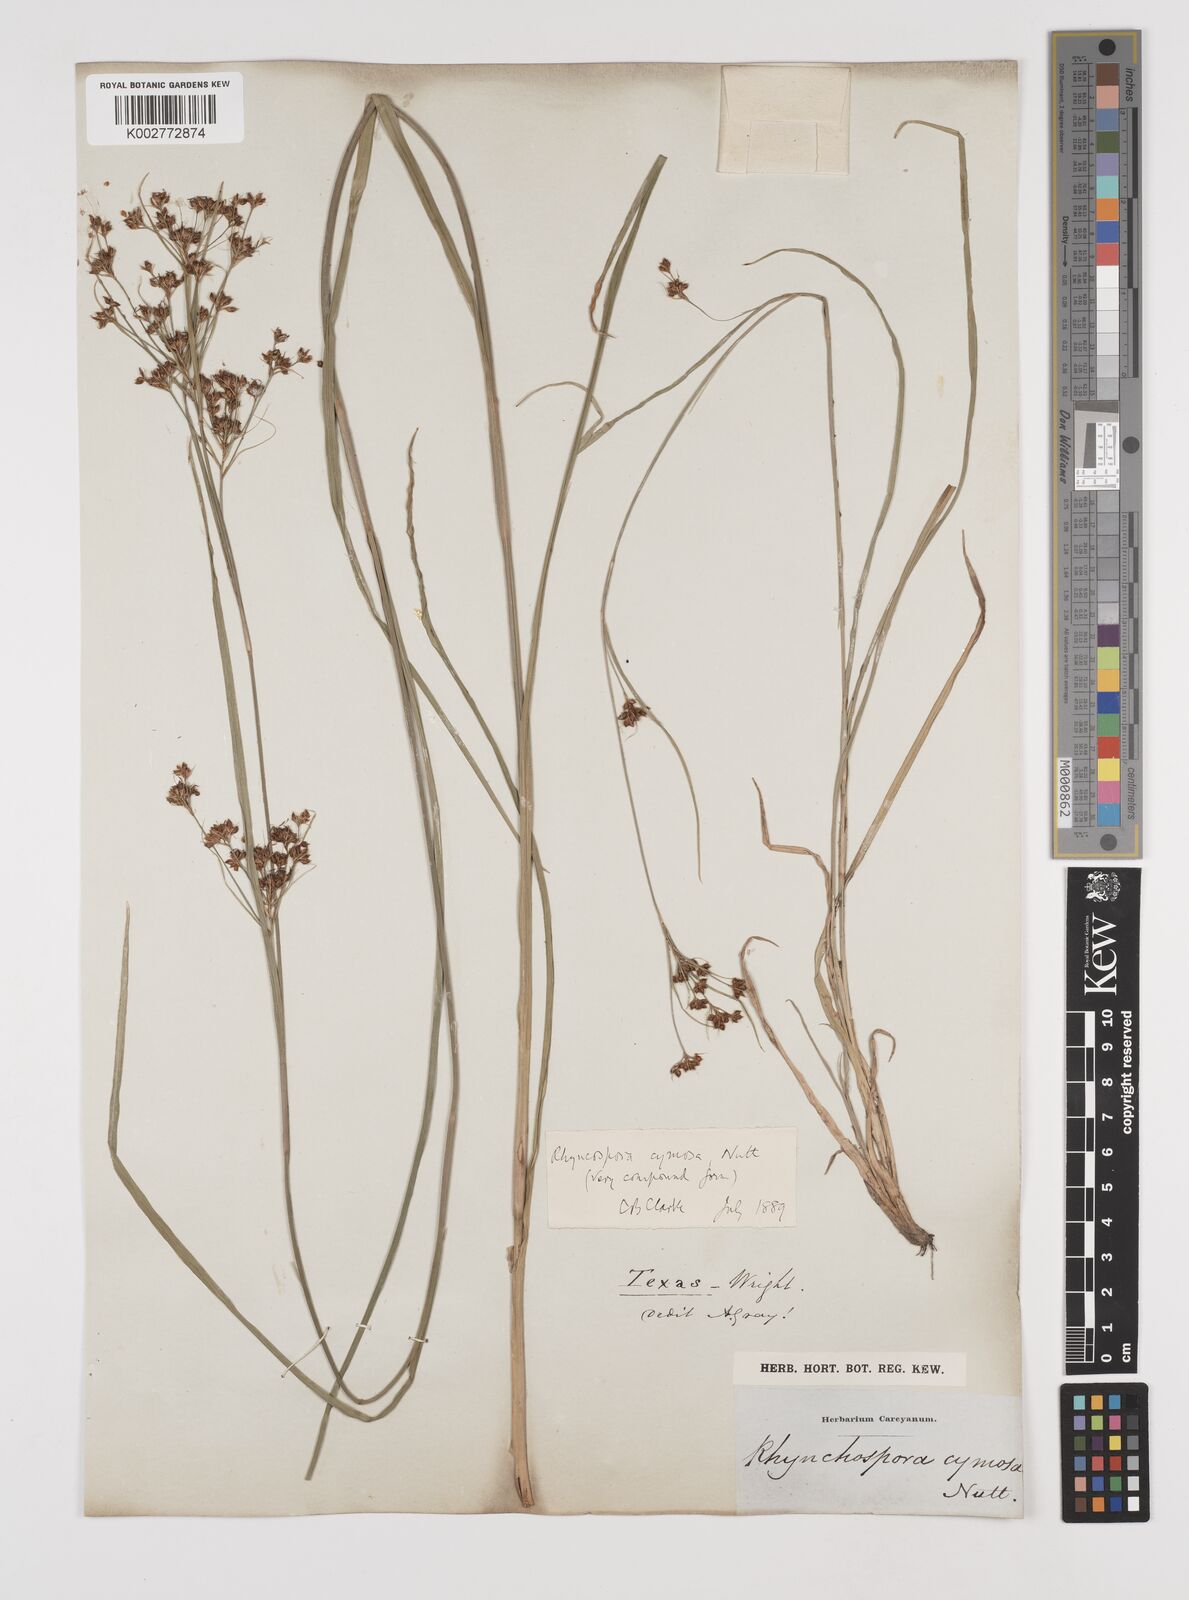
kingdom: Plantae
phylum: Tracheophyta
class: Liliopsida
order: Poales
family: Cyperaceae
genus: Scirpus
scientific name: Scirpus polyphyllus
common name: Leafy bulrush
